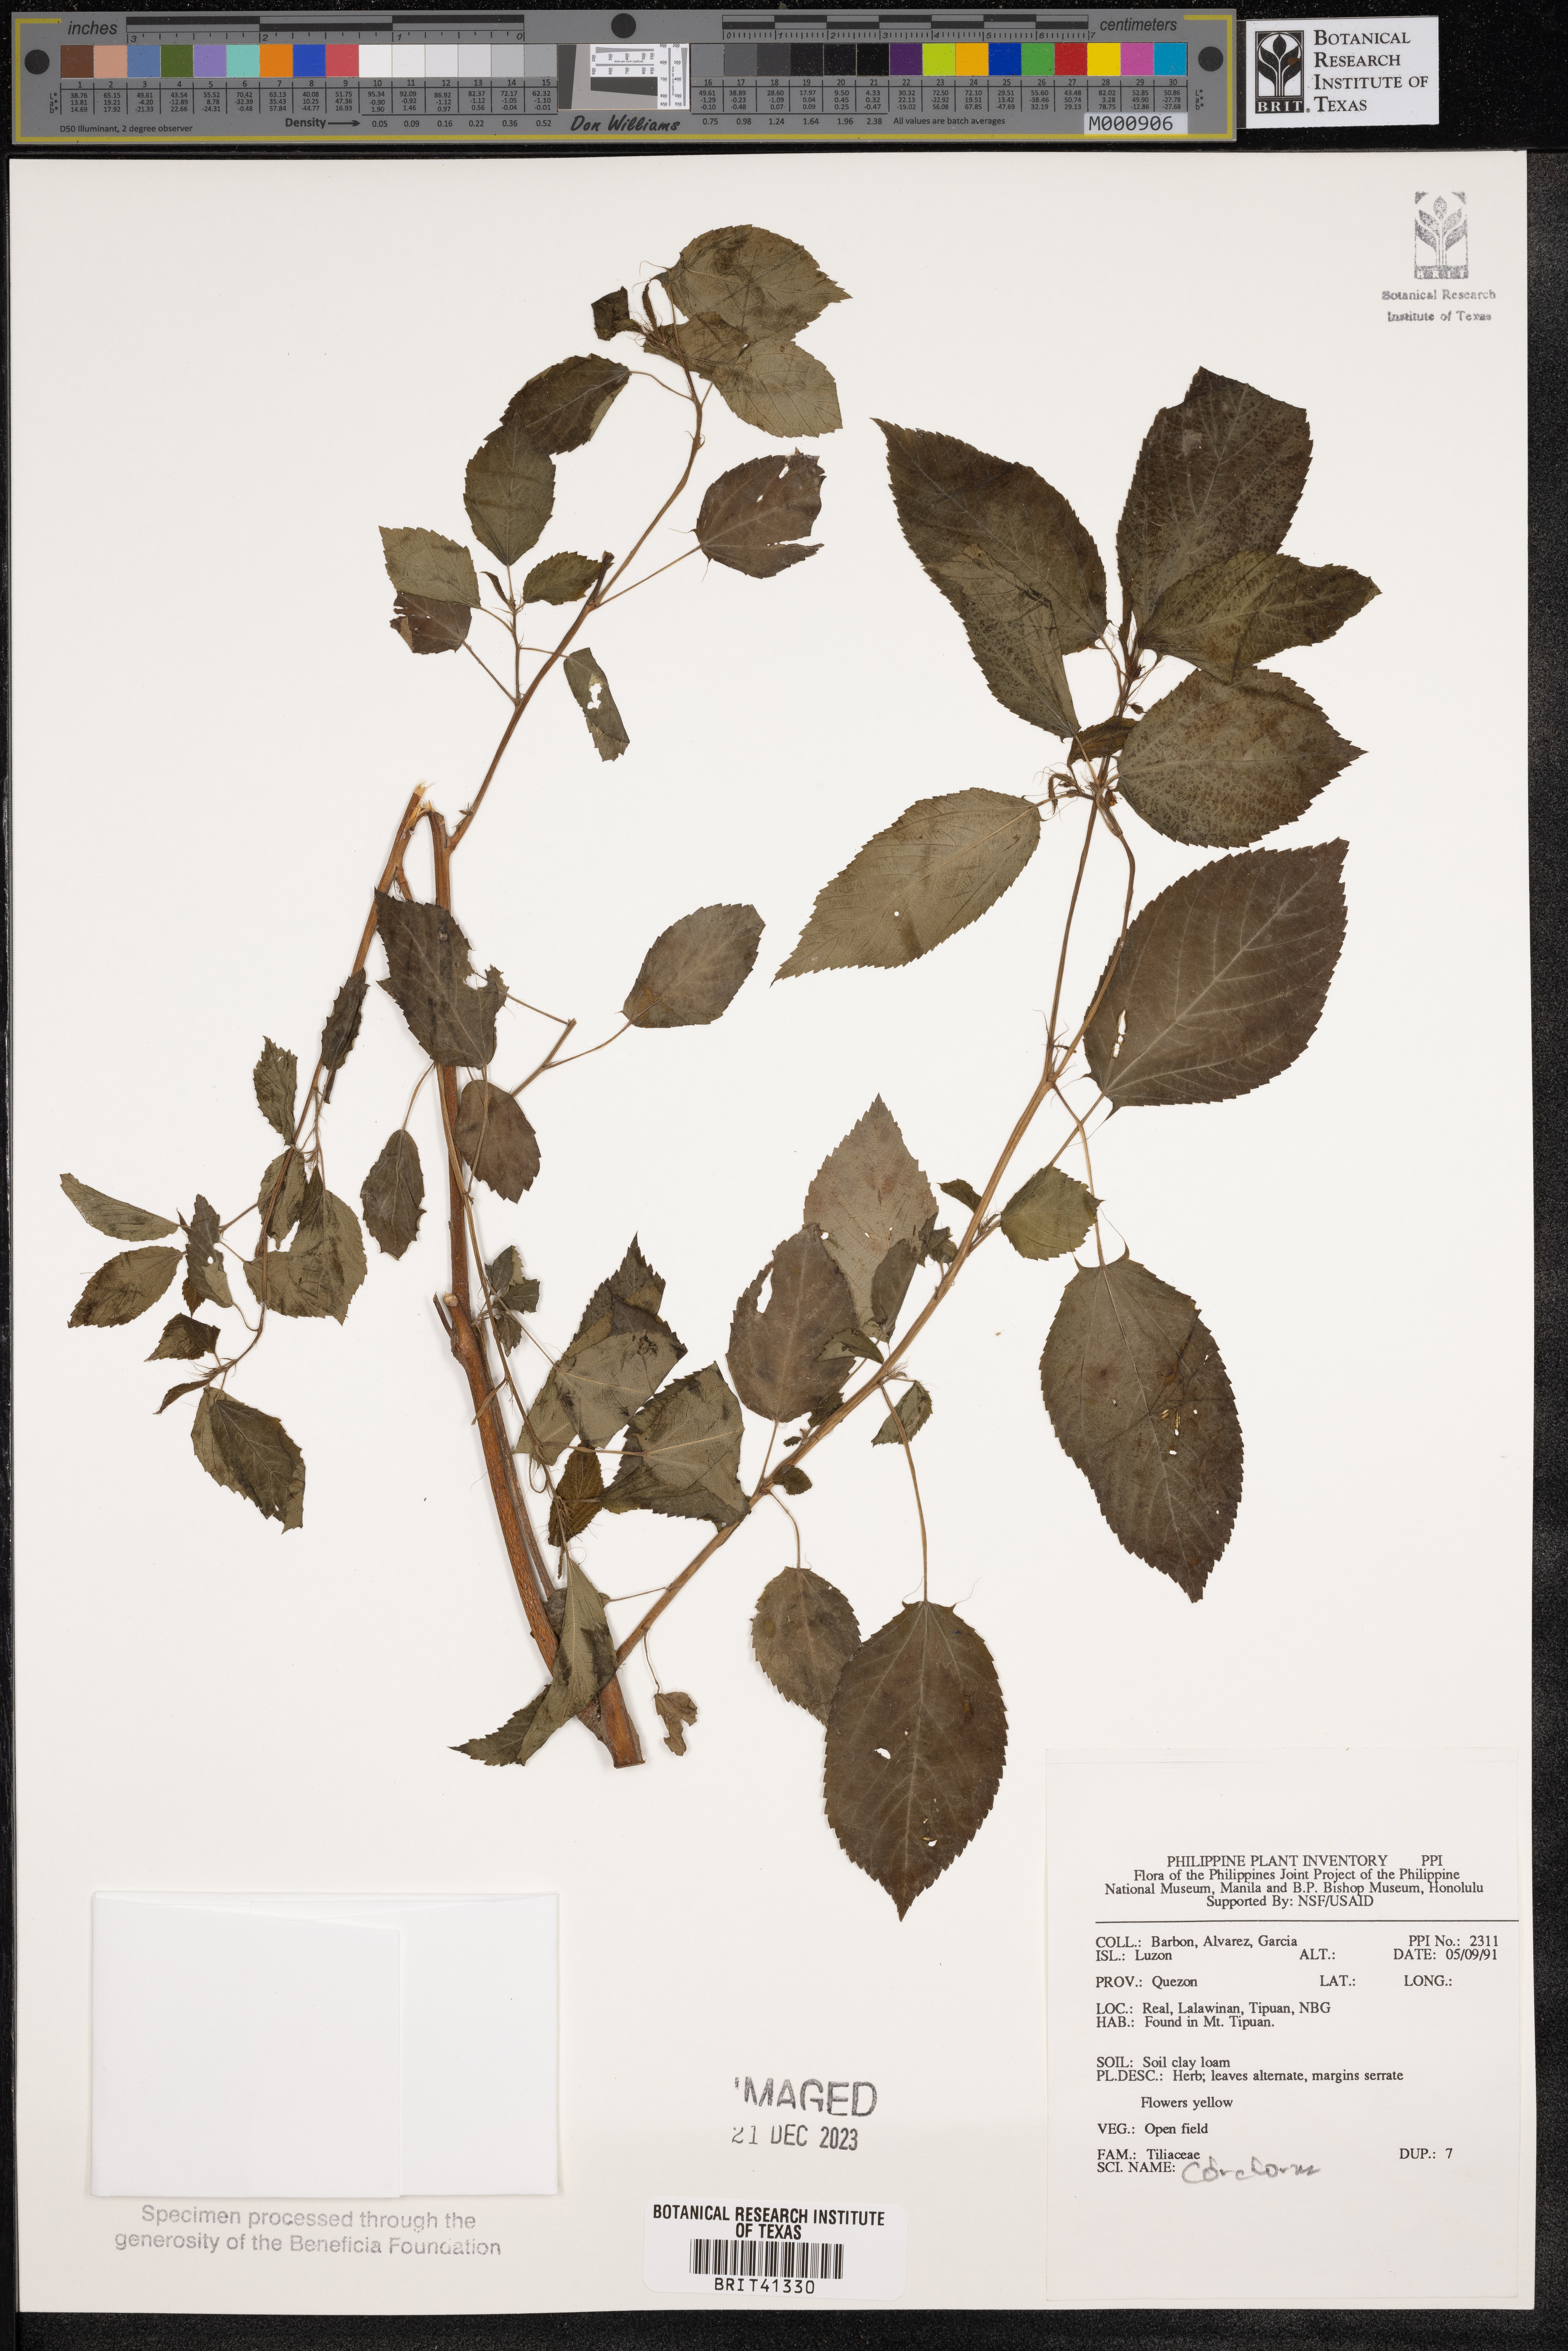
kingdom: Plantae
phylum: Tracheophyta
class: Magnoliopsida
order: Malvales
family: Malvaceae
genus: Corchorus
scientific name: Corchorus
